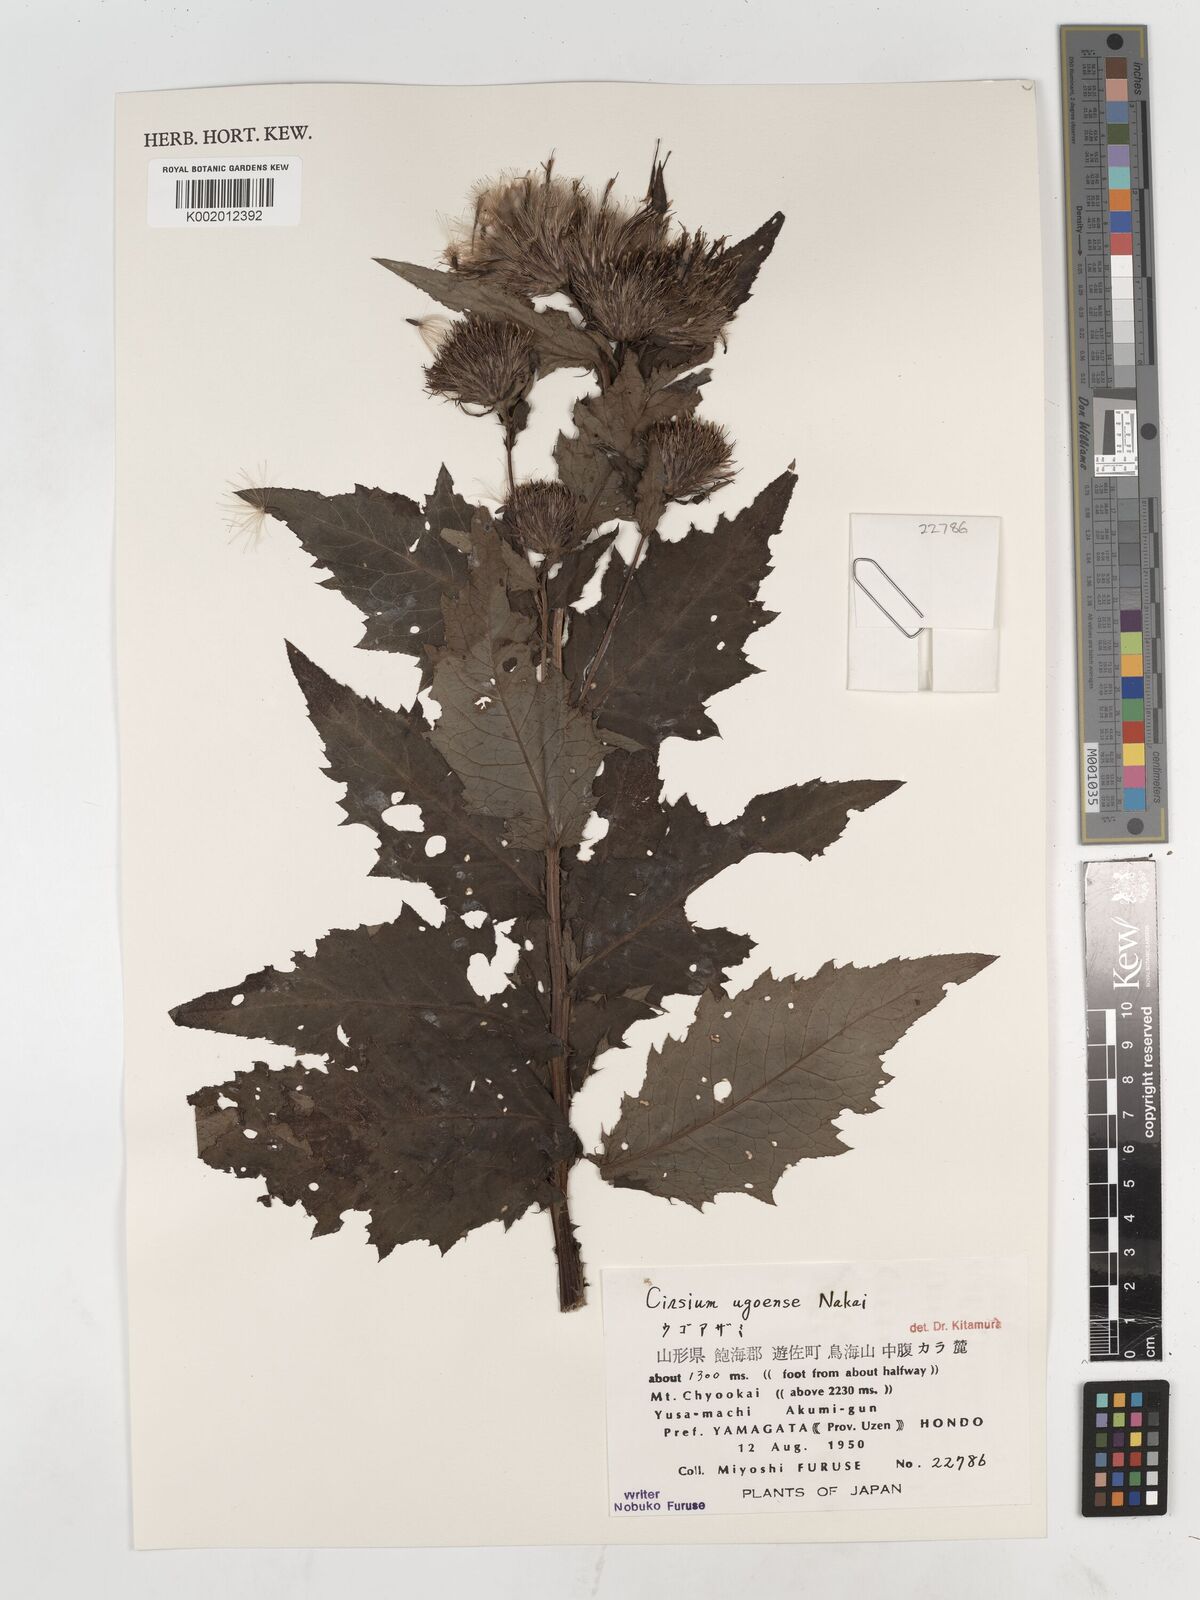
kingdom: Plantae
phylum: Tracheophyta
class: Magnoliopsida
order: Asterales
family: Asteraceae
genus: Cirsium
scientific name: Cirsium ugoense
